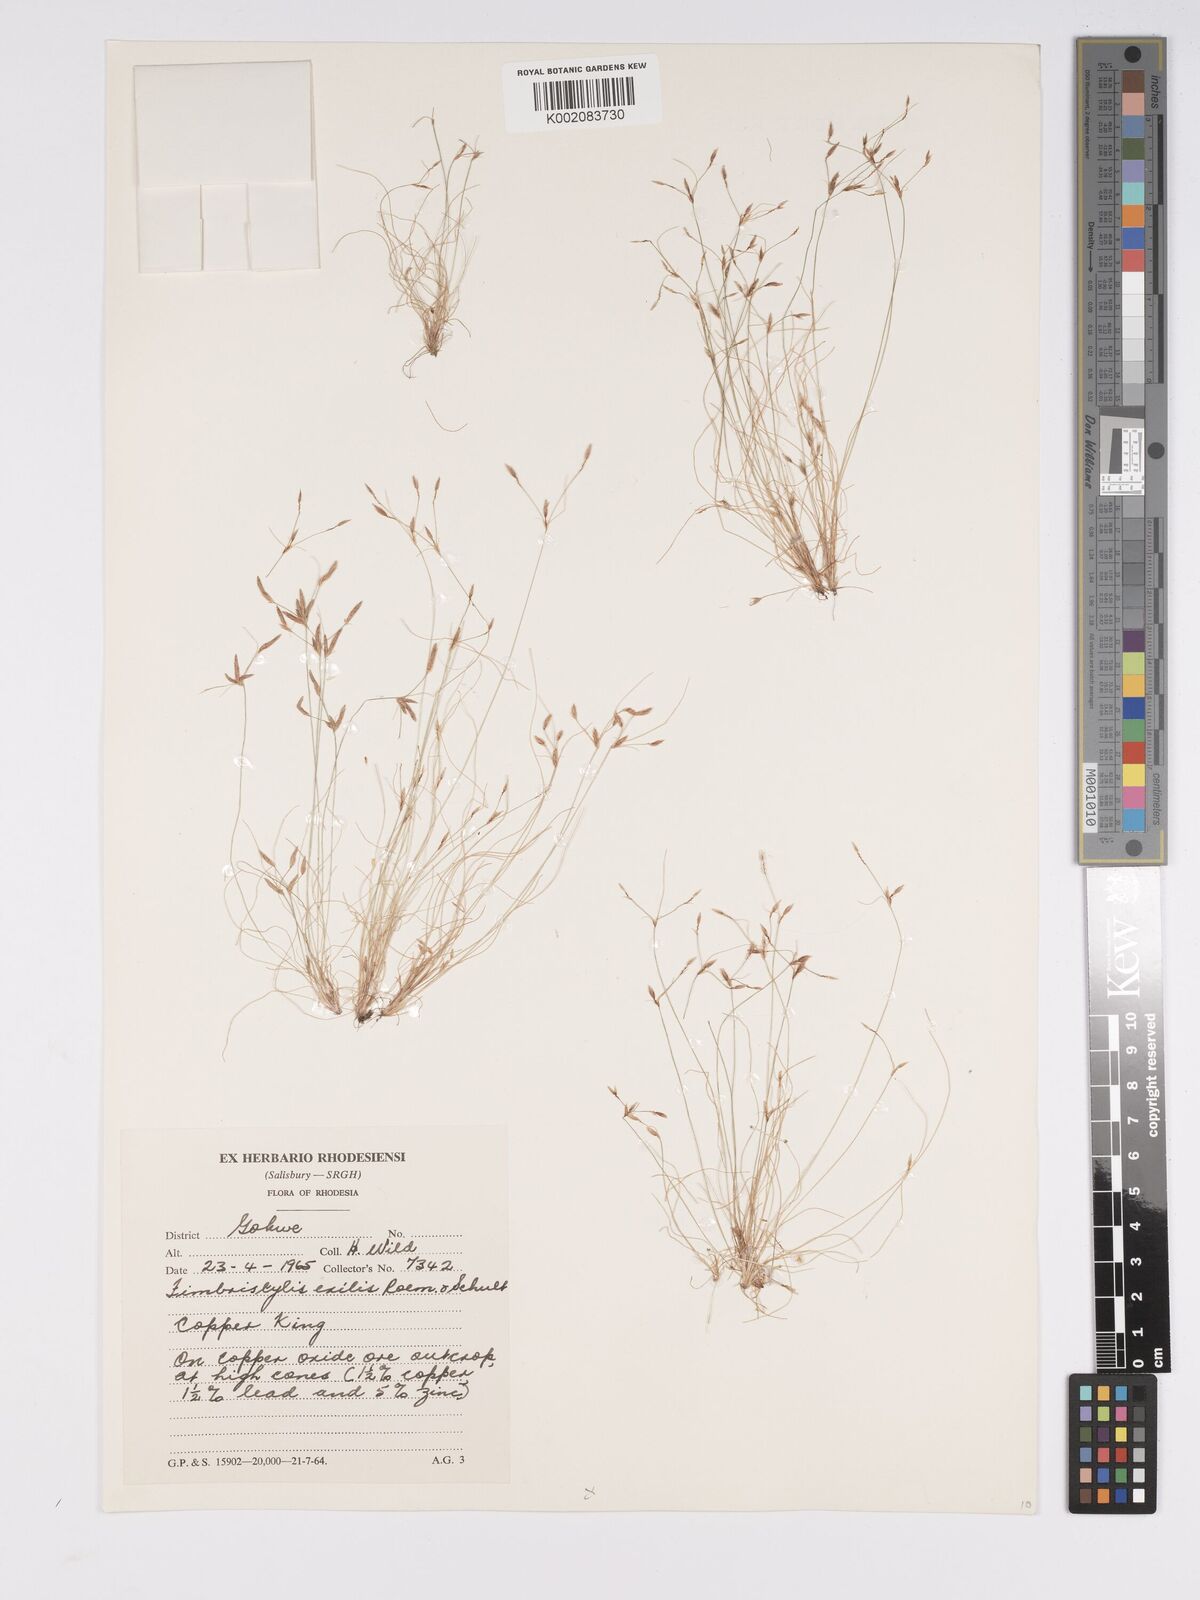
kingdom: Plantae
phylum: Tracheophyta
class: Liliopsida
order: Poales
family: Cyperaceae
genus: Bulbostylis
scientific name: Bulbostylis cupricola
